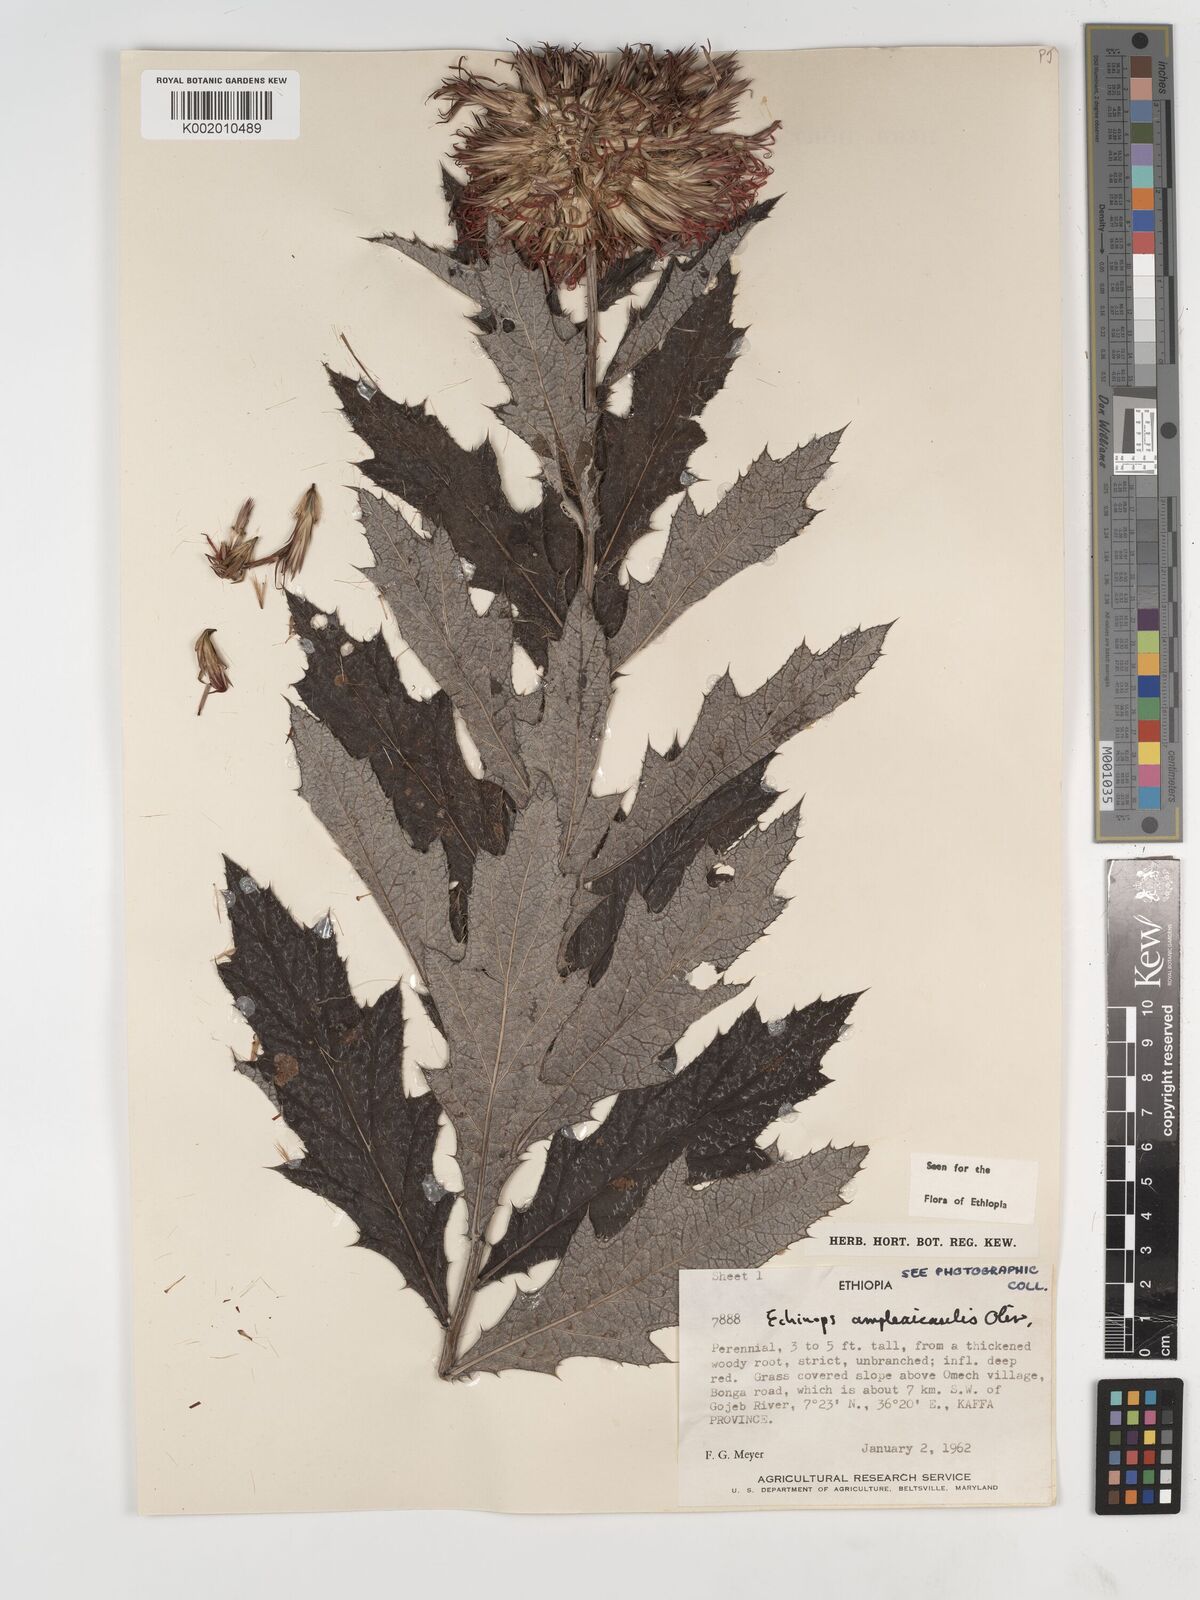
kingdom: Plantae
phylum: Tracheophyta
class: Magnoliopsida
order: Asterales
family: Asteraceae
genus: Echinops
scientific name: Echinops amplexicaulis
